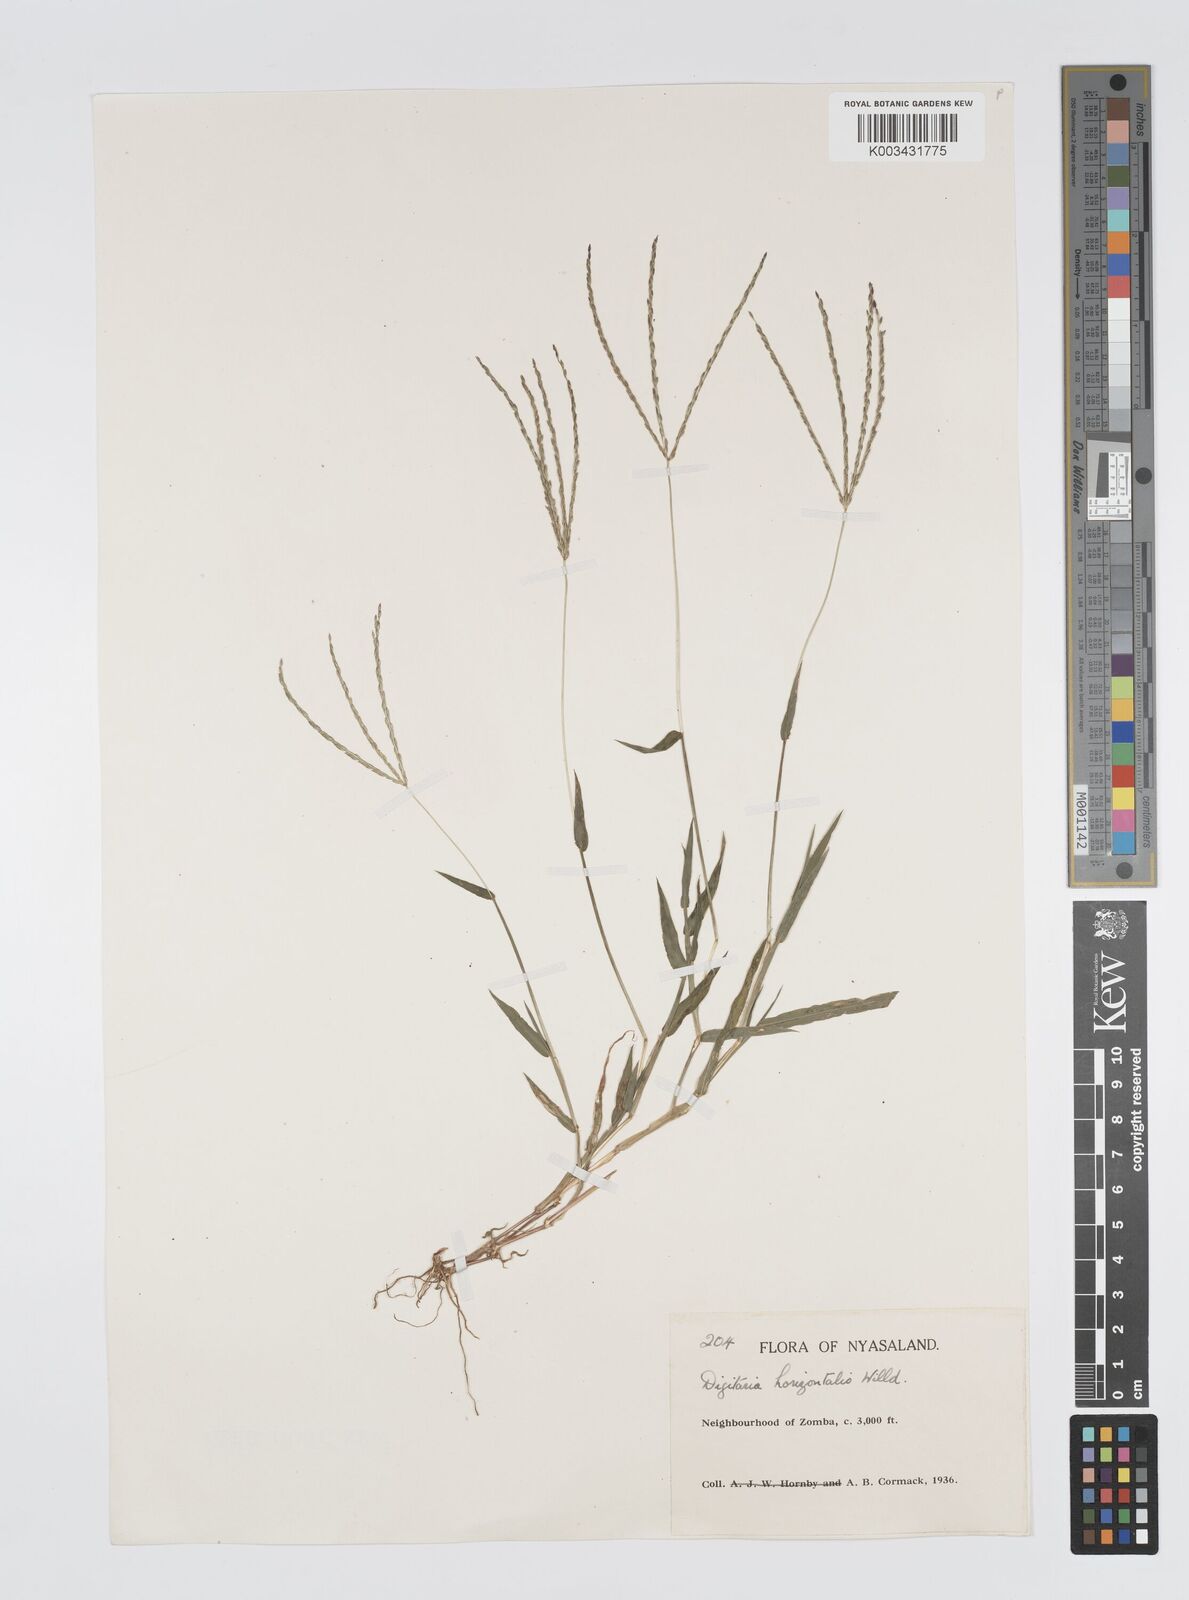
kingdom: Plantae
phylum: Tracheophyta
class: Liliopsida
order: Poales
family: Poaceae
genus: Digitaria
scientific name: Digitaria nuda
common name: Naked crabgrass
